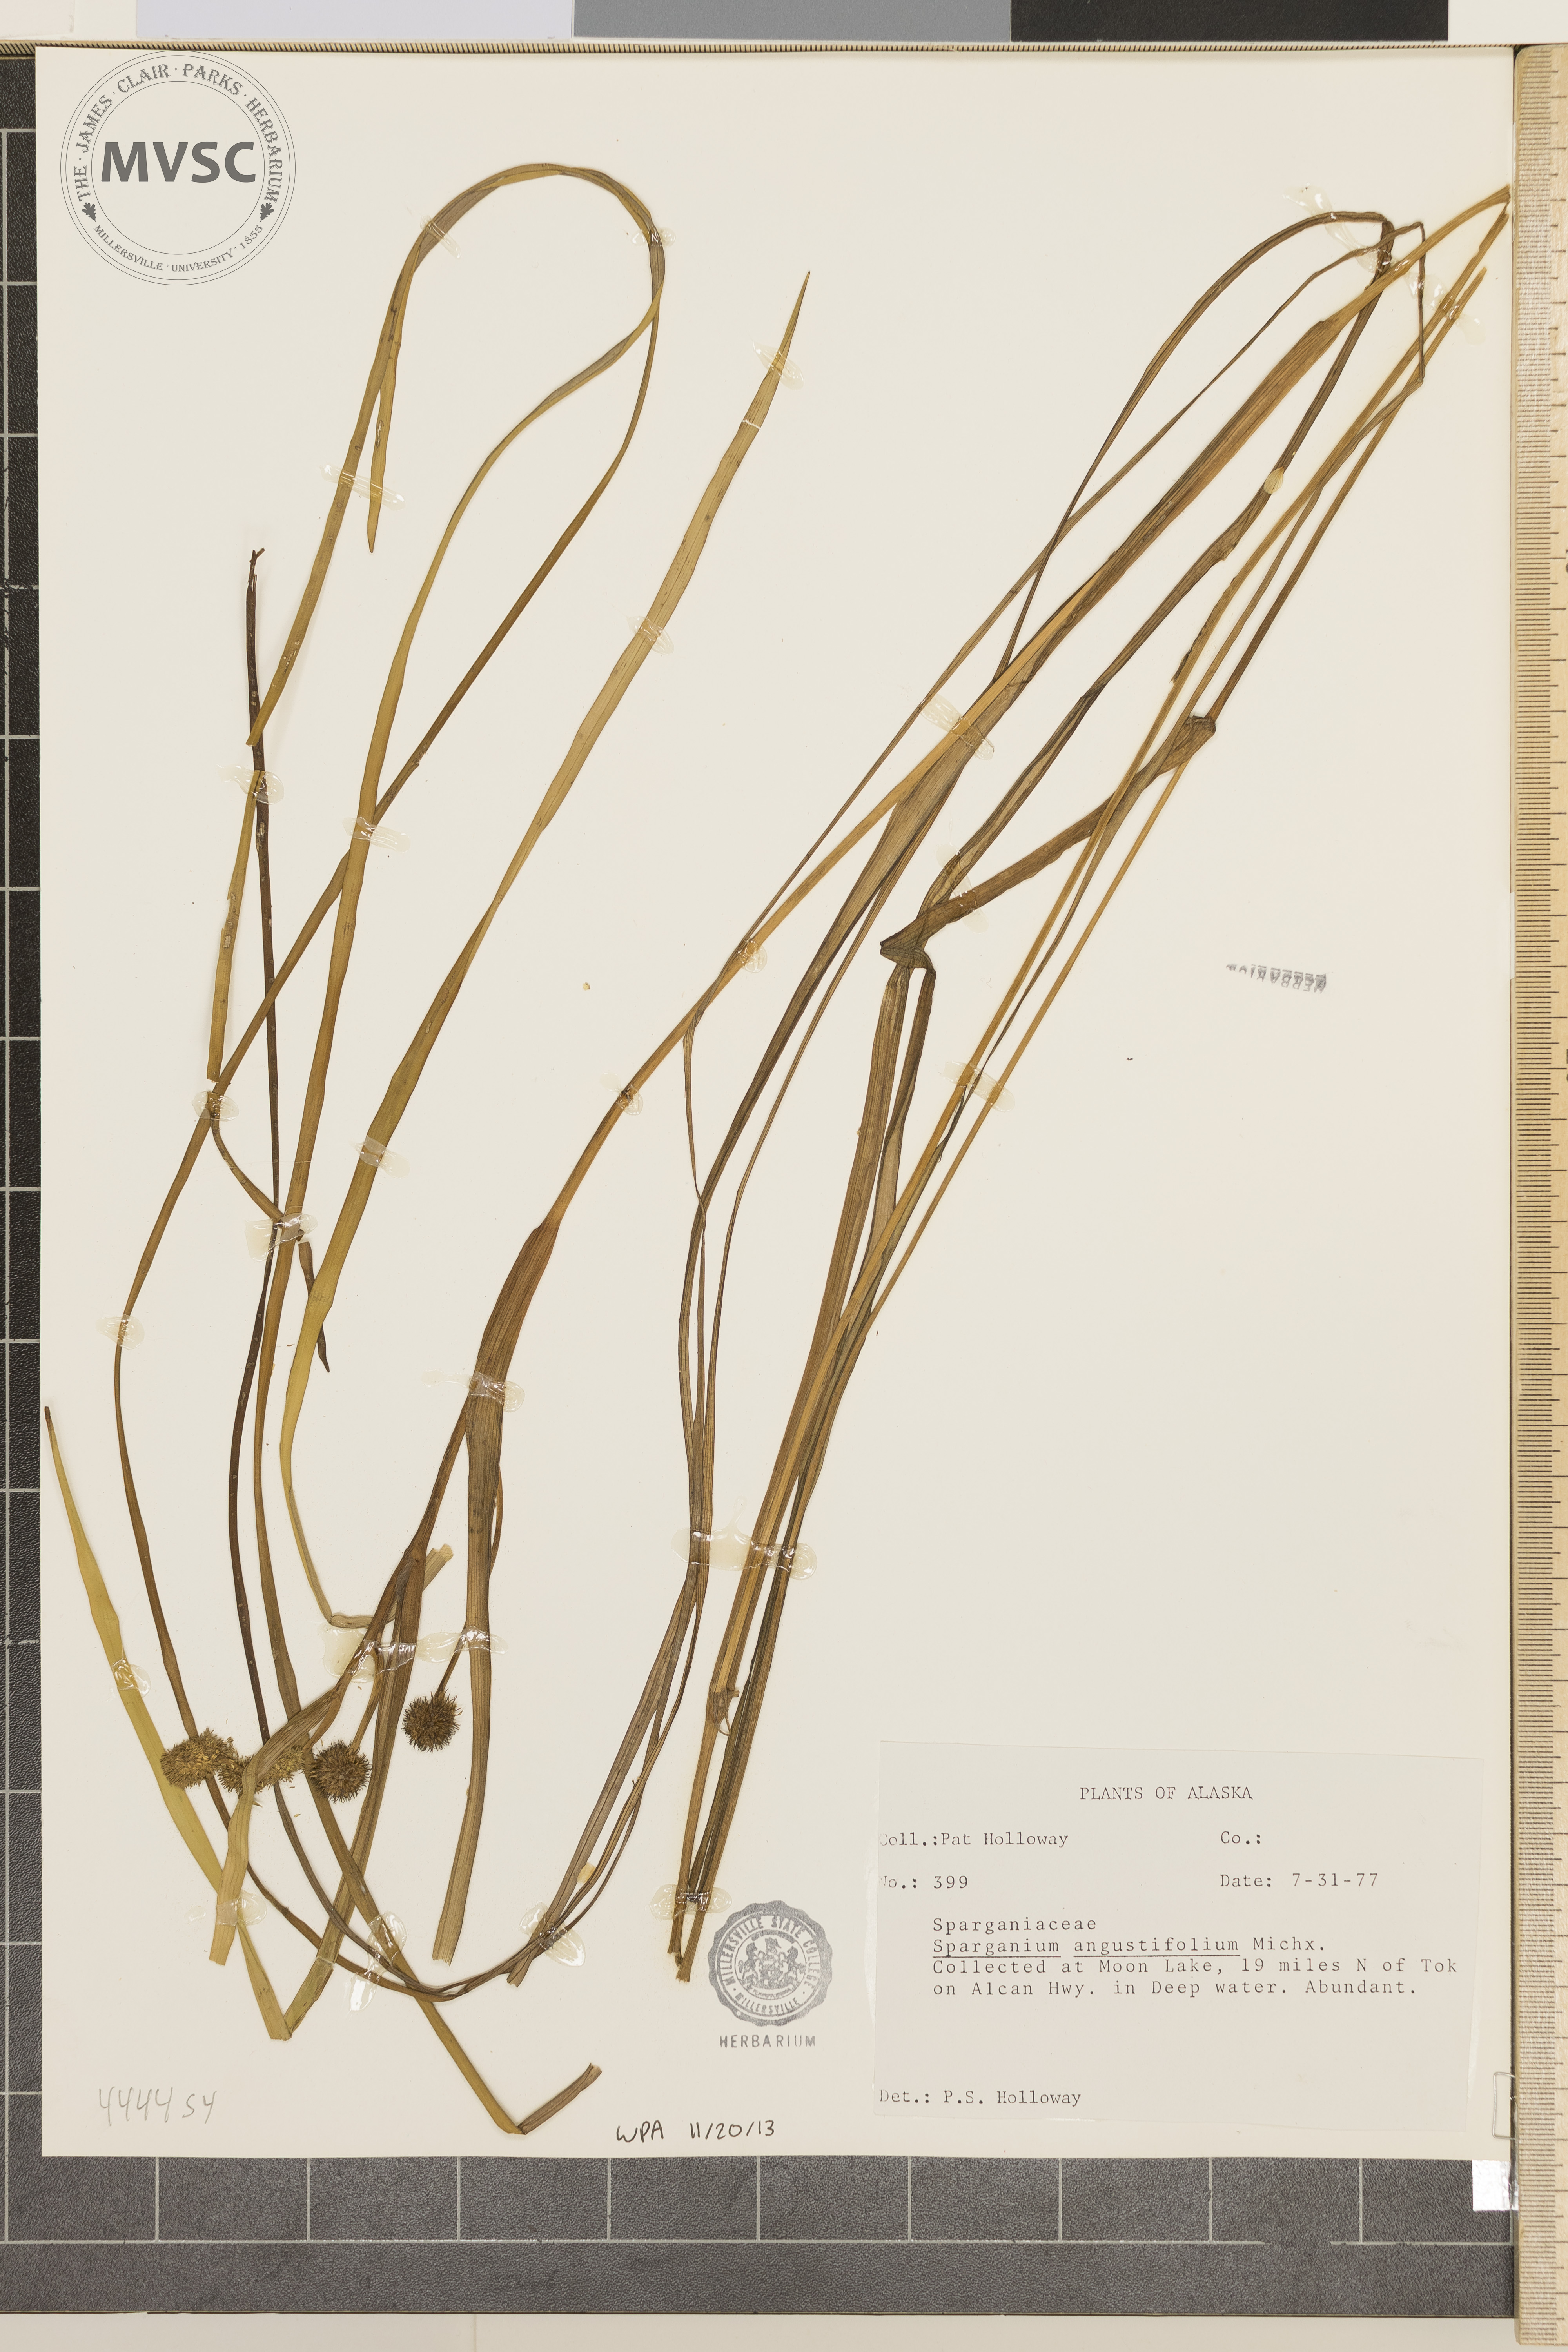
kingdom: Plantae
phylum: Tracheophyta
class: Liliopsida
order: Poales
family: Typhaceae
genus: Sparganium
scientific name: Sparganium angustifolium
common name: Floating bur-reed
